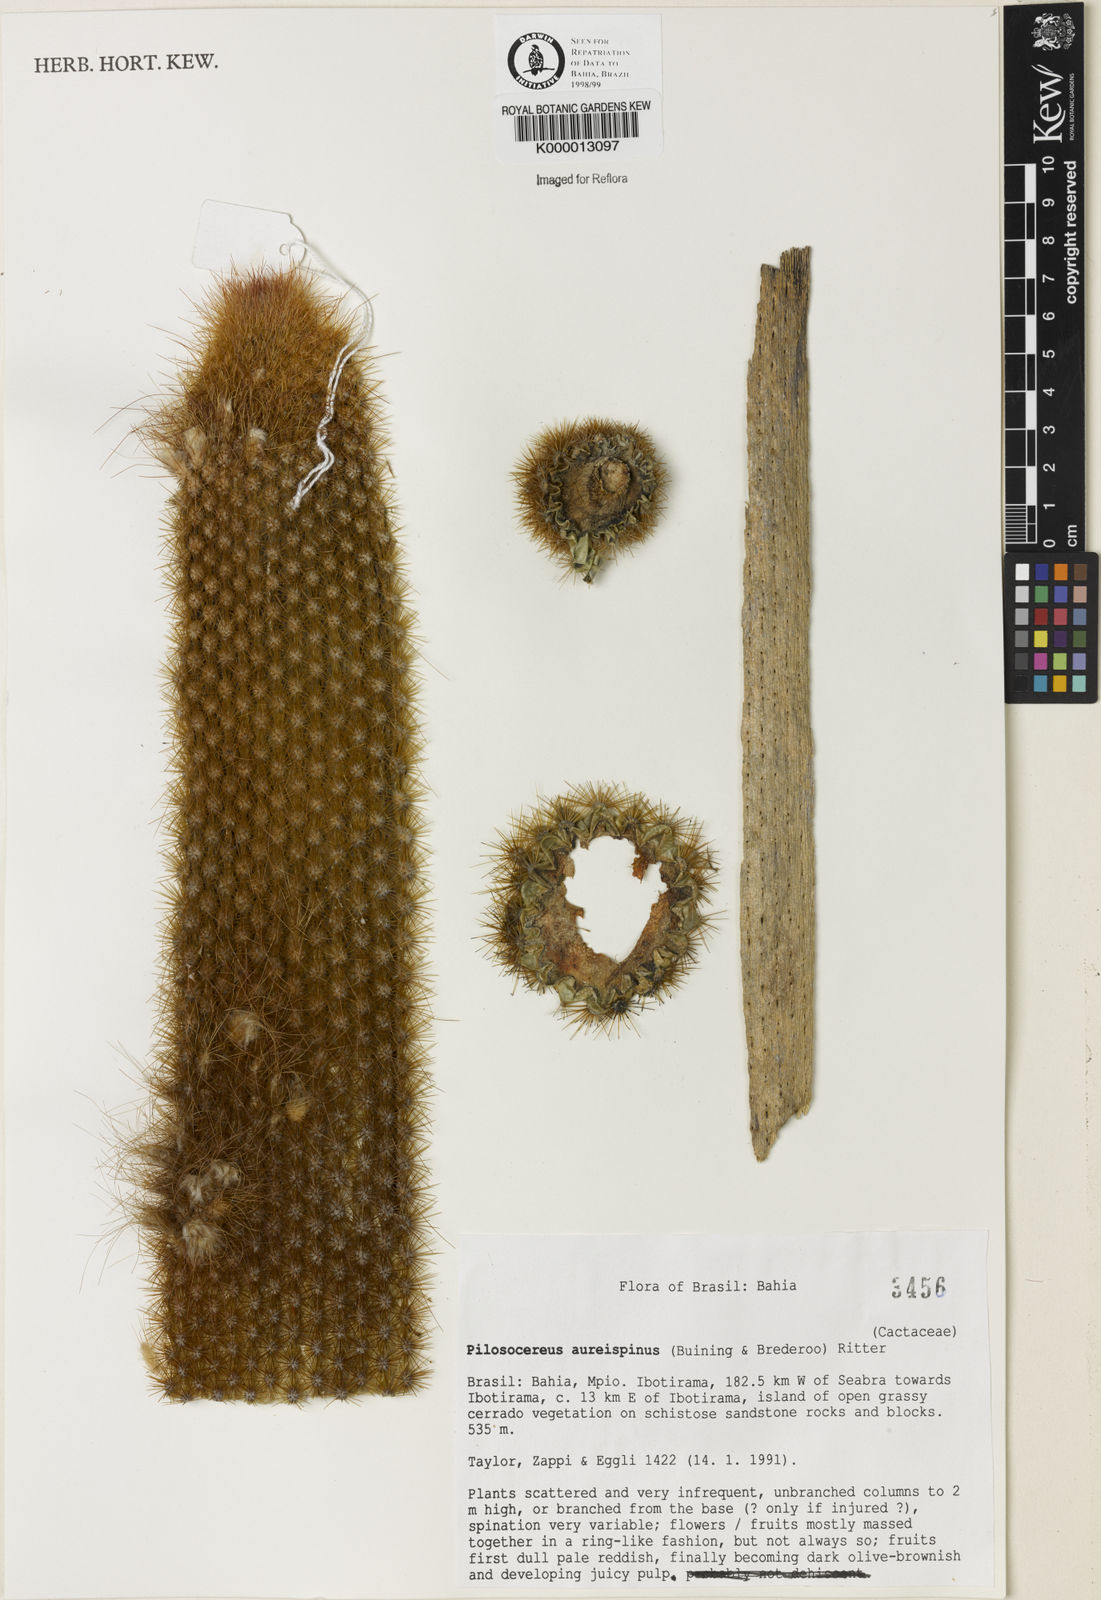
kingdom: Plantae
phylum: Tracheophyta
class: Magnoliopsida
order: Caryophyllales
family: Cactaceae
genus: Pilosocereus
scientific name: Pilosocereus aureispinus
